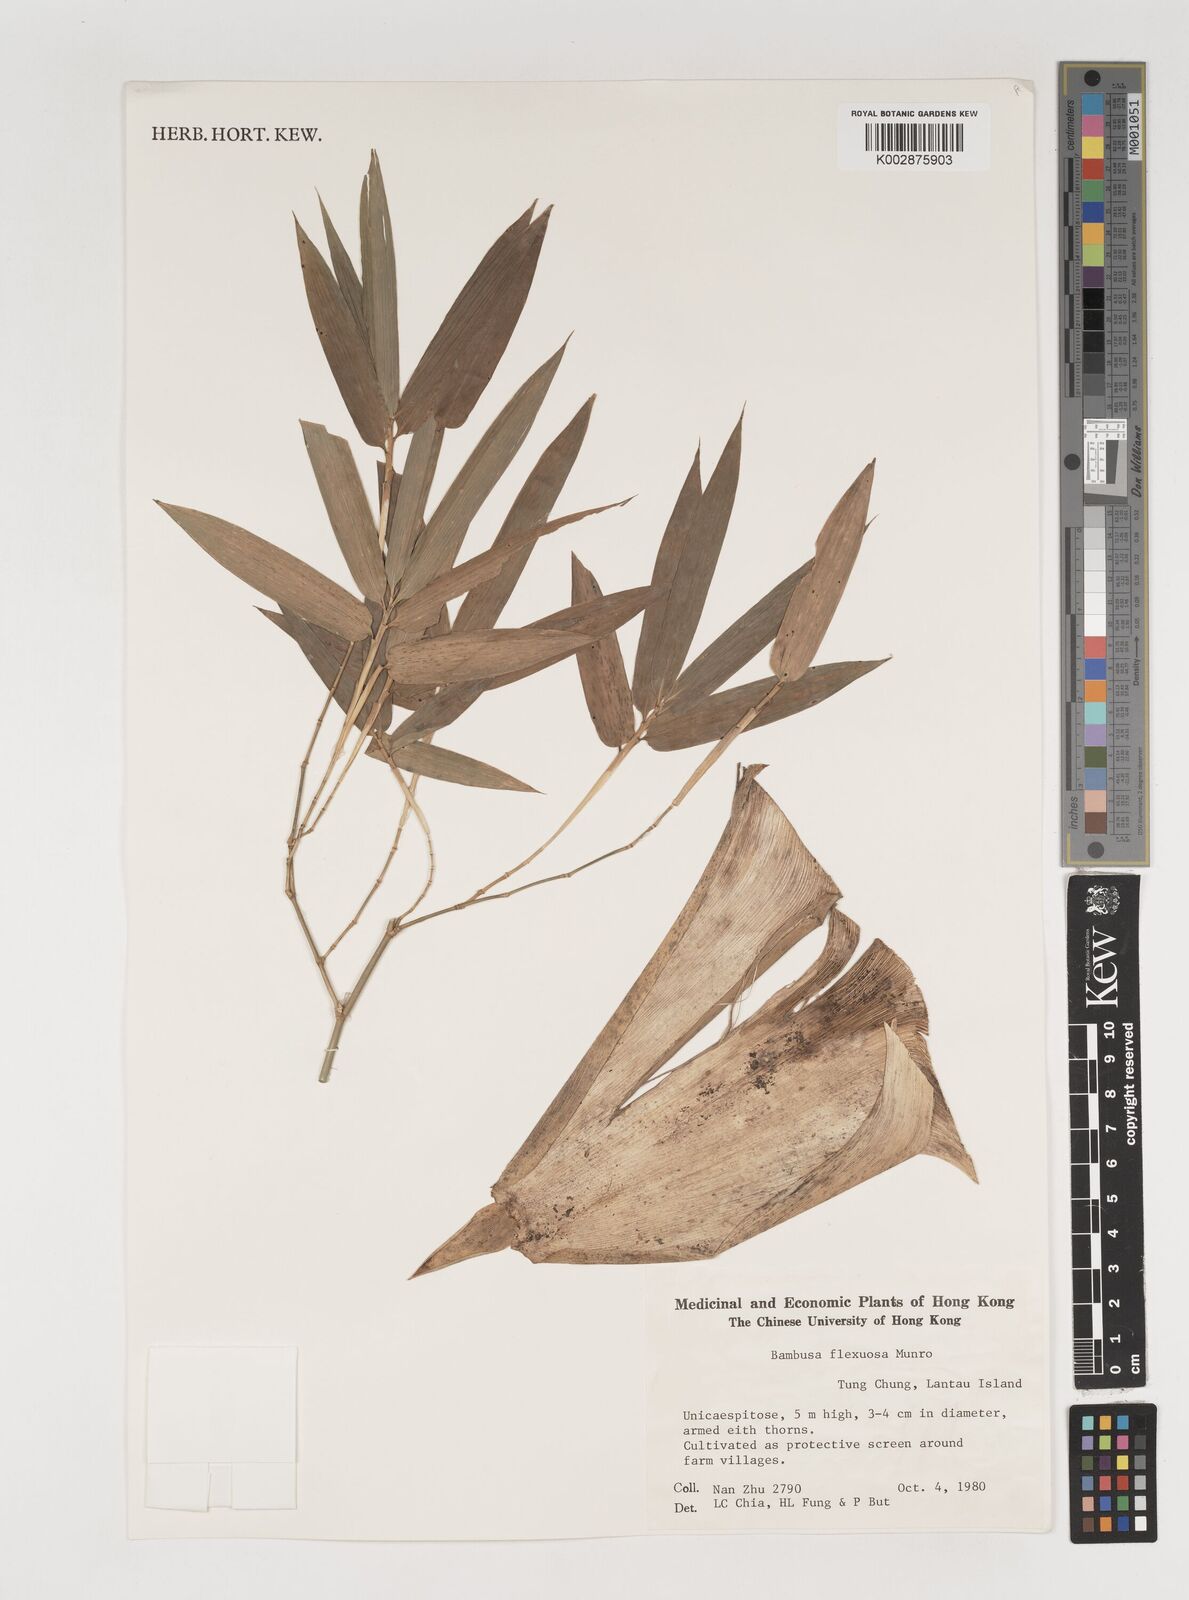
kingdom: Plantae
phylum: Tracheophyta
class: Liliopsida
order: Poales
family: Poaceae
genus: Bambusa
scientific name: Bambusa flexuosa
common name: Lesser thorny bamboo
